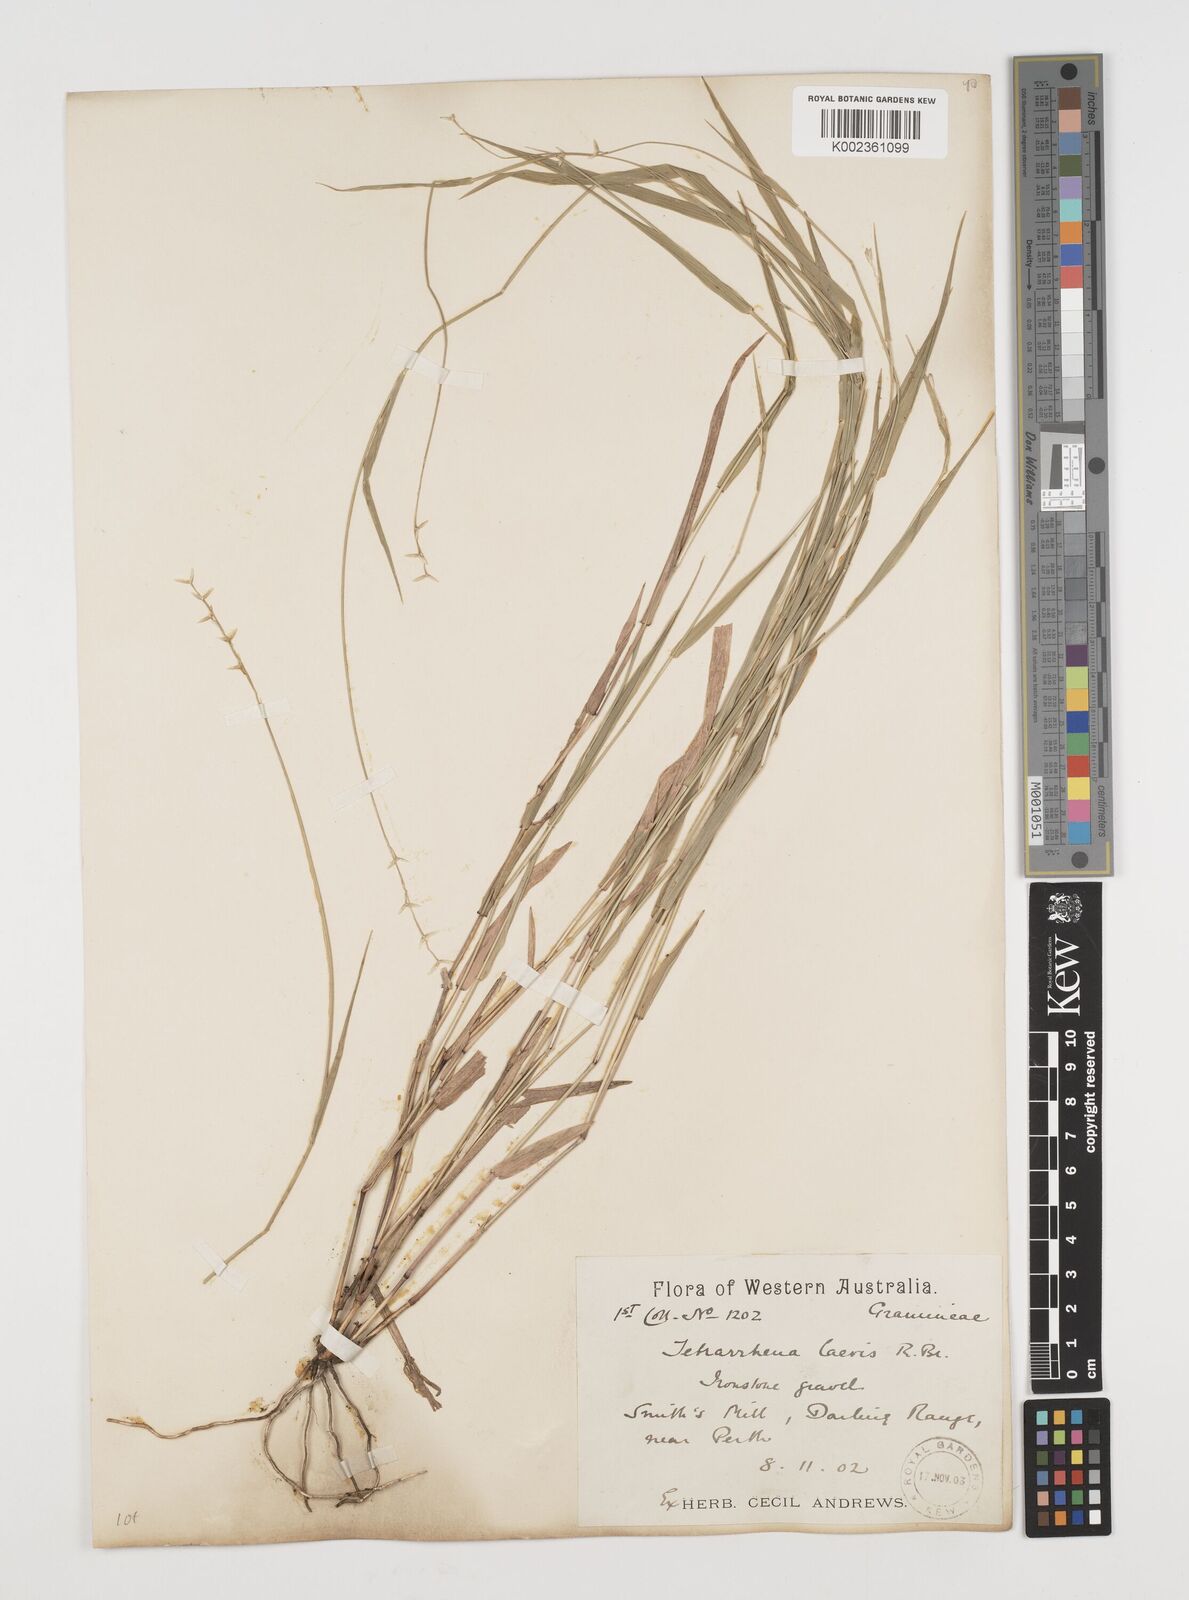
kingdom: Plantae
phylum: Tracheophyta
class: Liliopsida
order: Poales
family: Poaceae
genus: Tetrarrhena
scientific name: Tetrarrhena laevis
